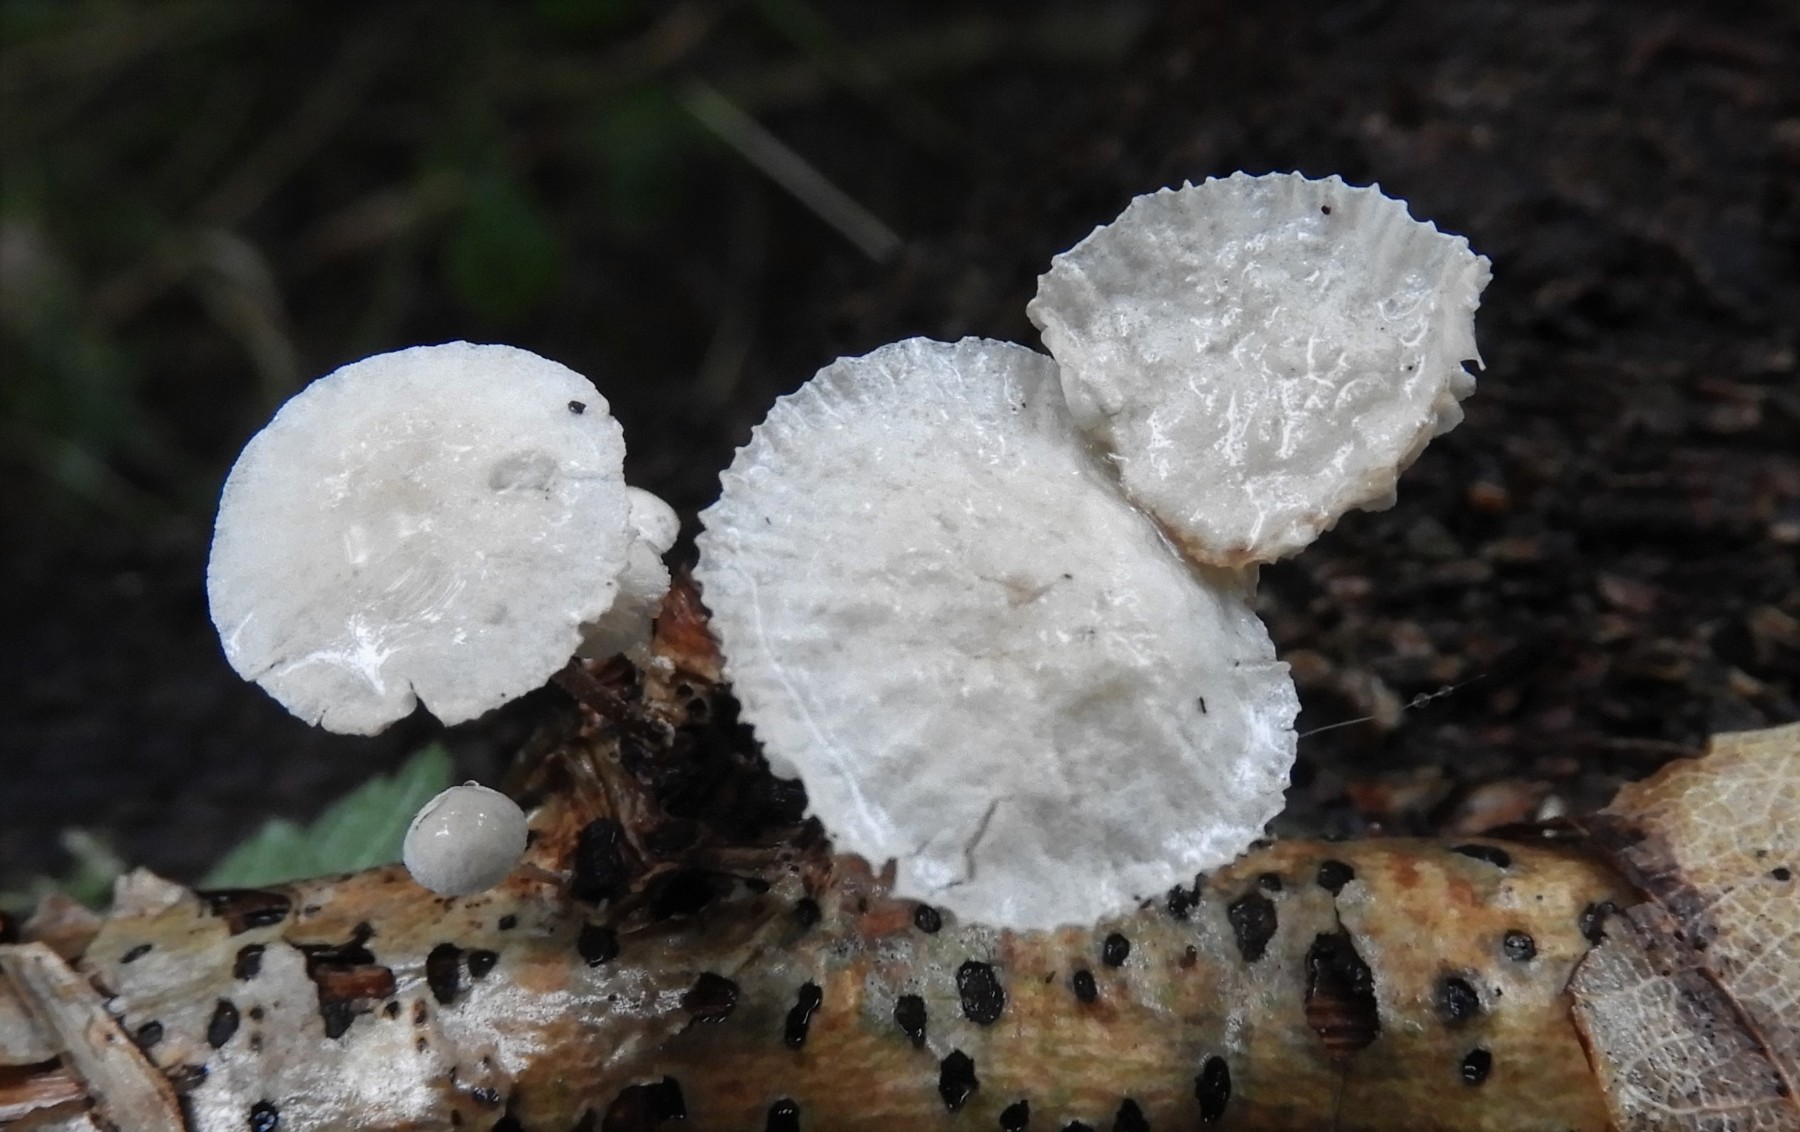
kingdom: Fungi
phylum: Basidiomycota
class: Agaricomycetes
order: Agaricales
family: Omphalotaceae
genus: Collybiopsis
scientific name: Collybiopsis ramealis
